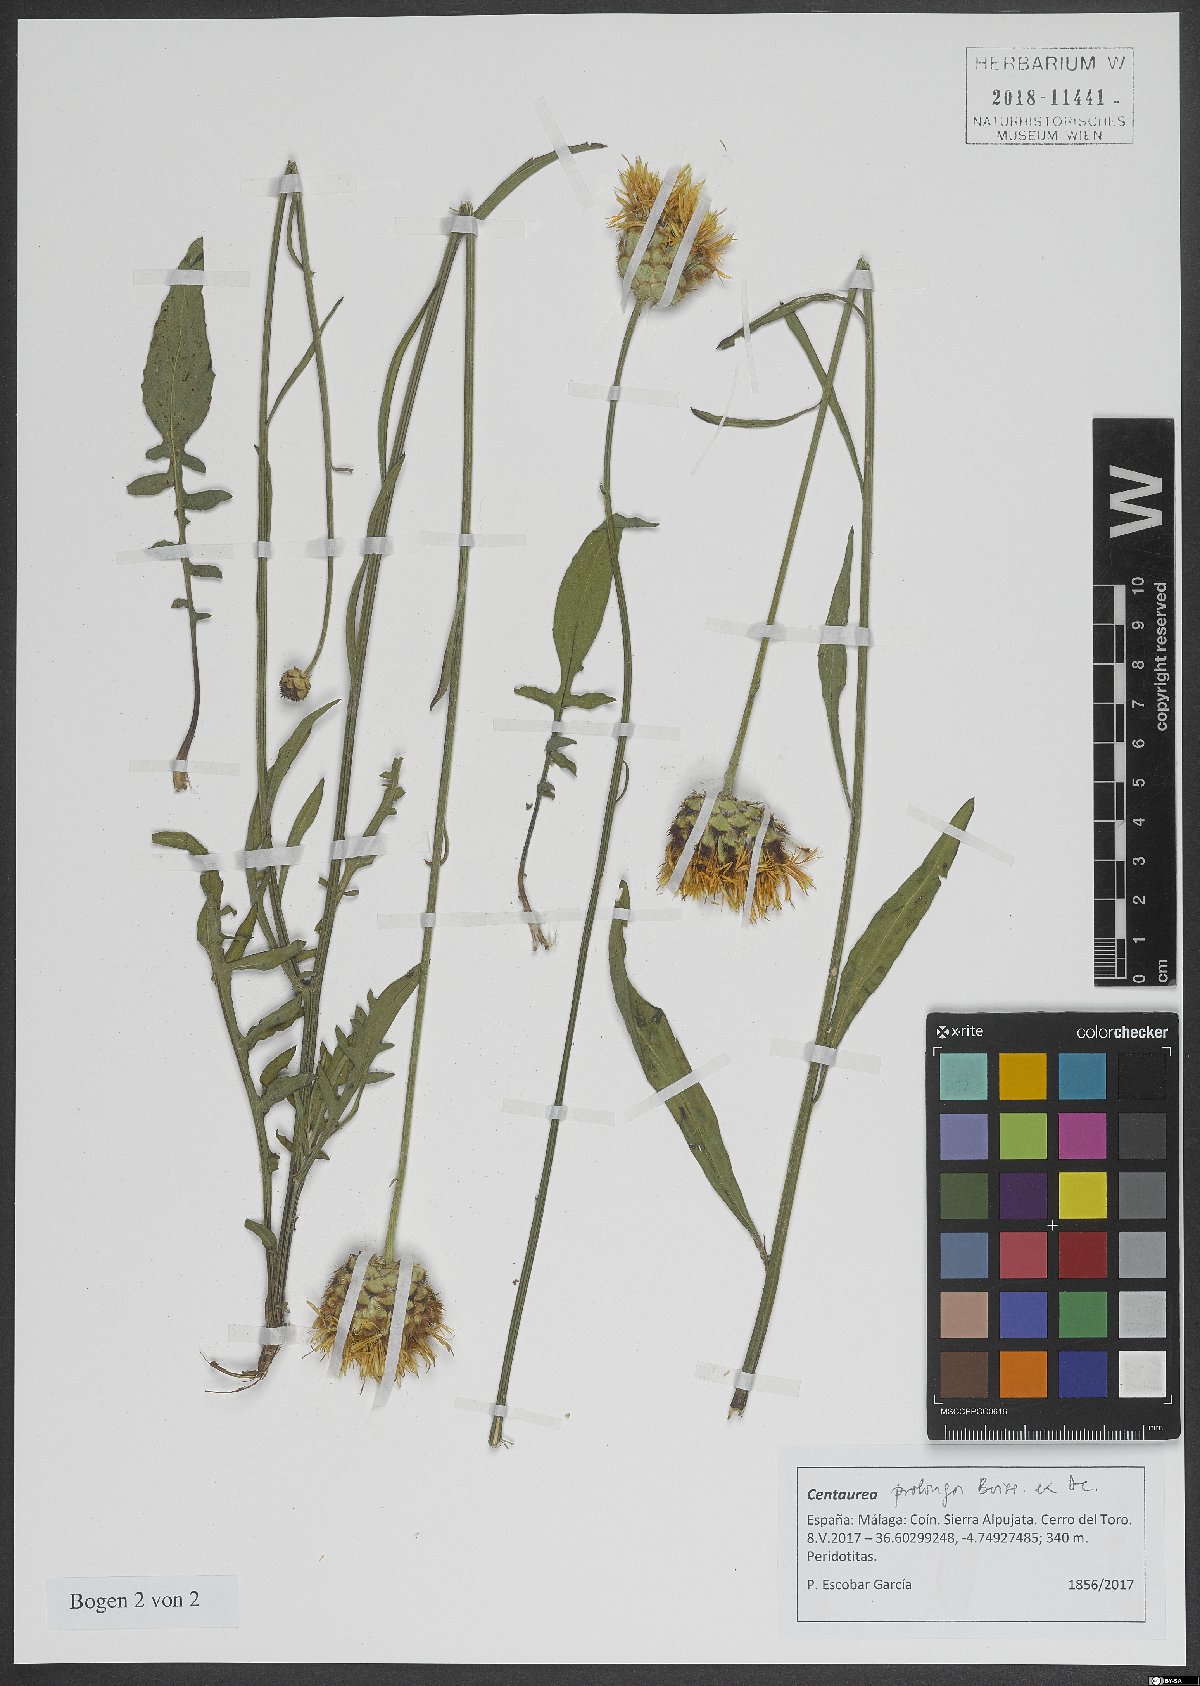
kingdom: Plantae
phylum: Tracheophyta
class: Magnoliopsida
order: Asterales
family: Asteraceae
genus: Centaurea
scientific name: Centaurea prolongi
